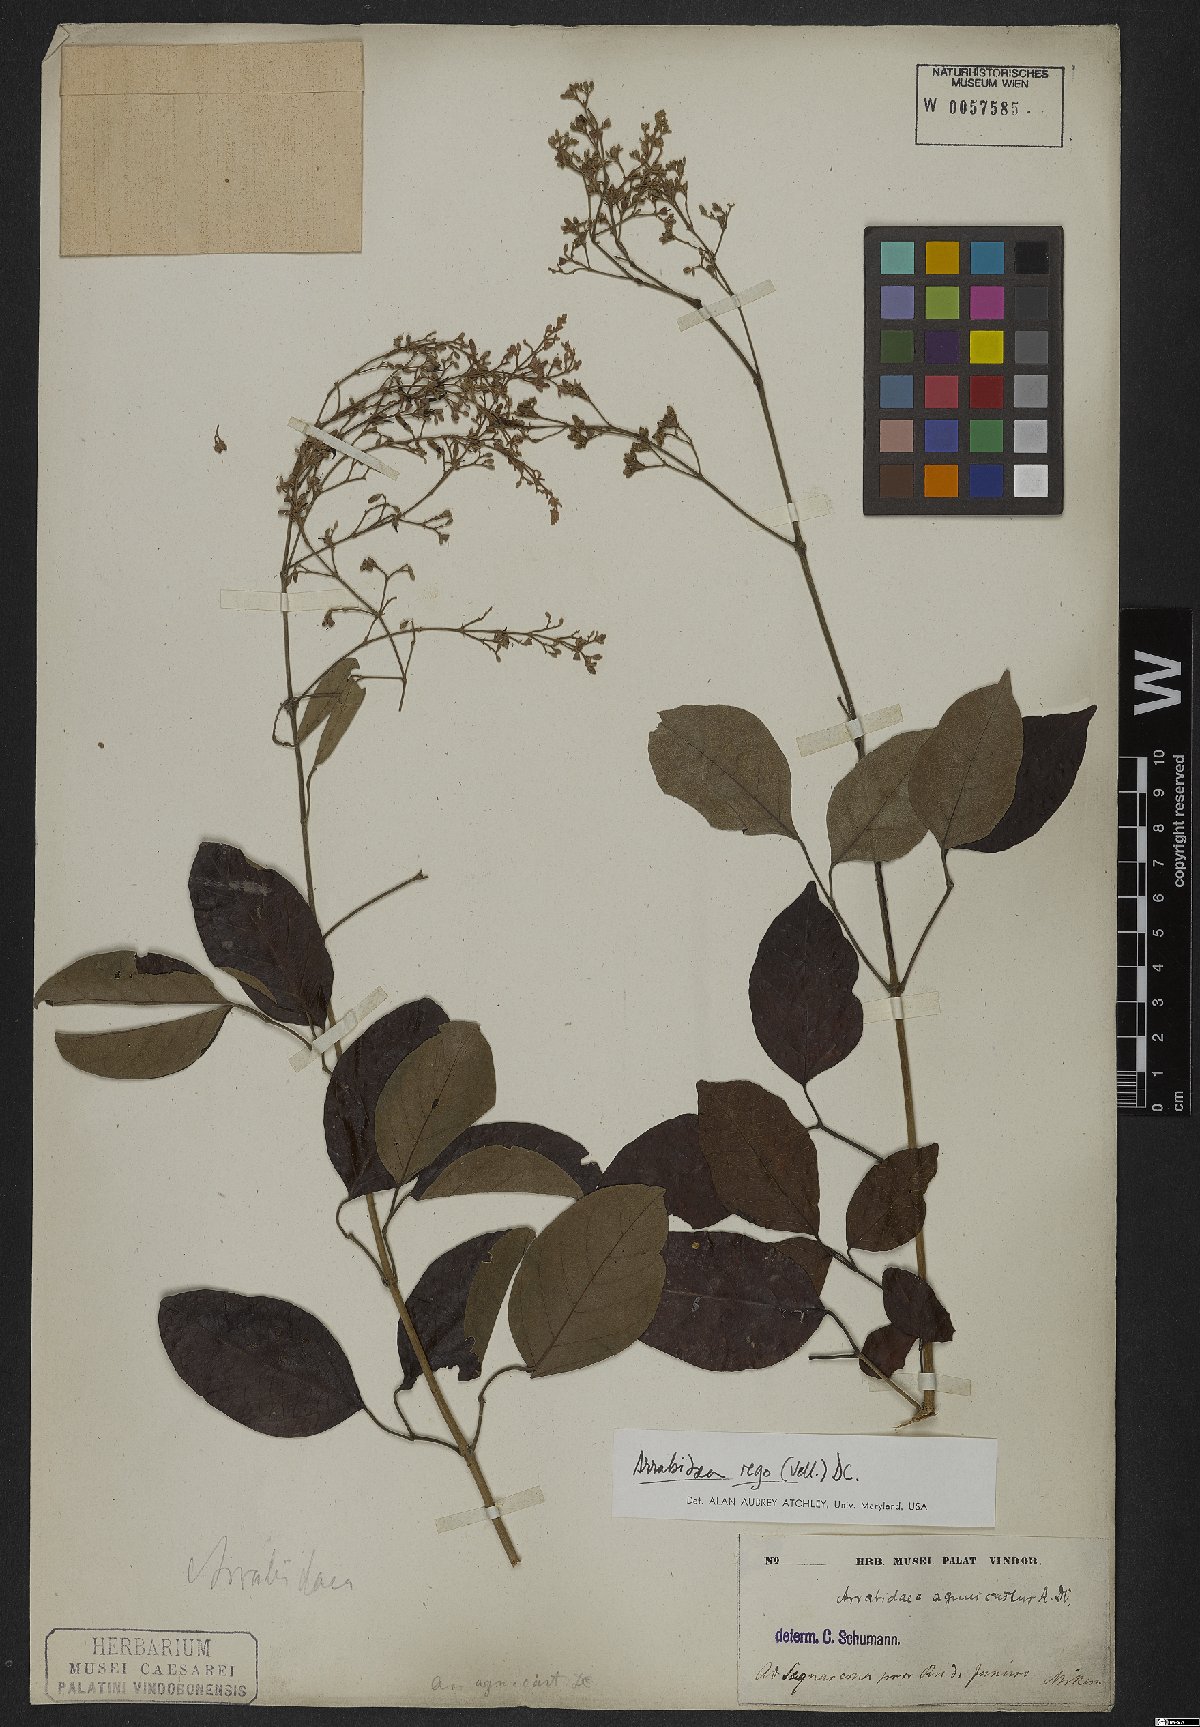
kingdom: Plantae
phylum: Tracheophyta
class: Magnoliopsida
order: Lamiales
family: Bignoniaceae
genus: Fridericia
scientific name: Fridericia rego
